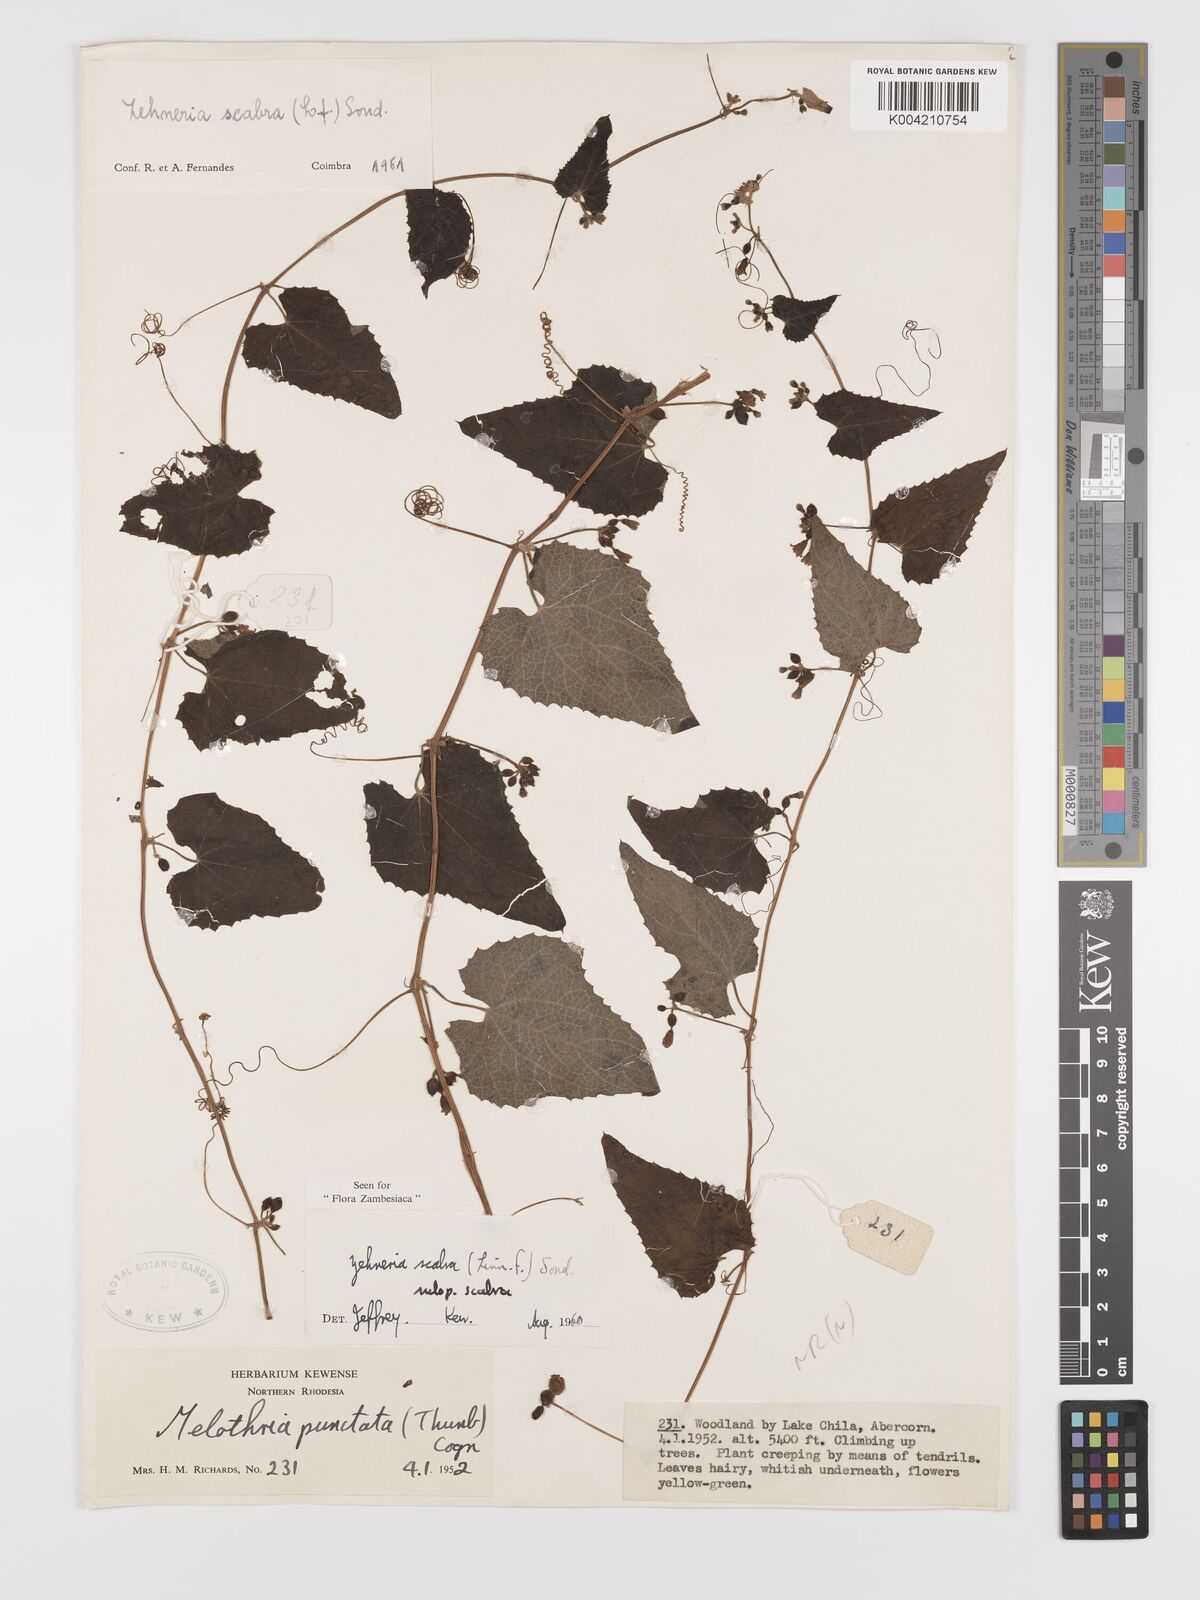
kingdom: Plantae
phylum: Tracheophyta
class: Magnoliopsida
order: Cucurbitales
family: Cucurbitaceae
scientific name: Cucurbitaceae
